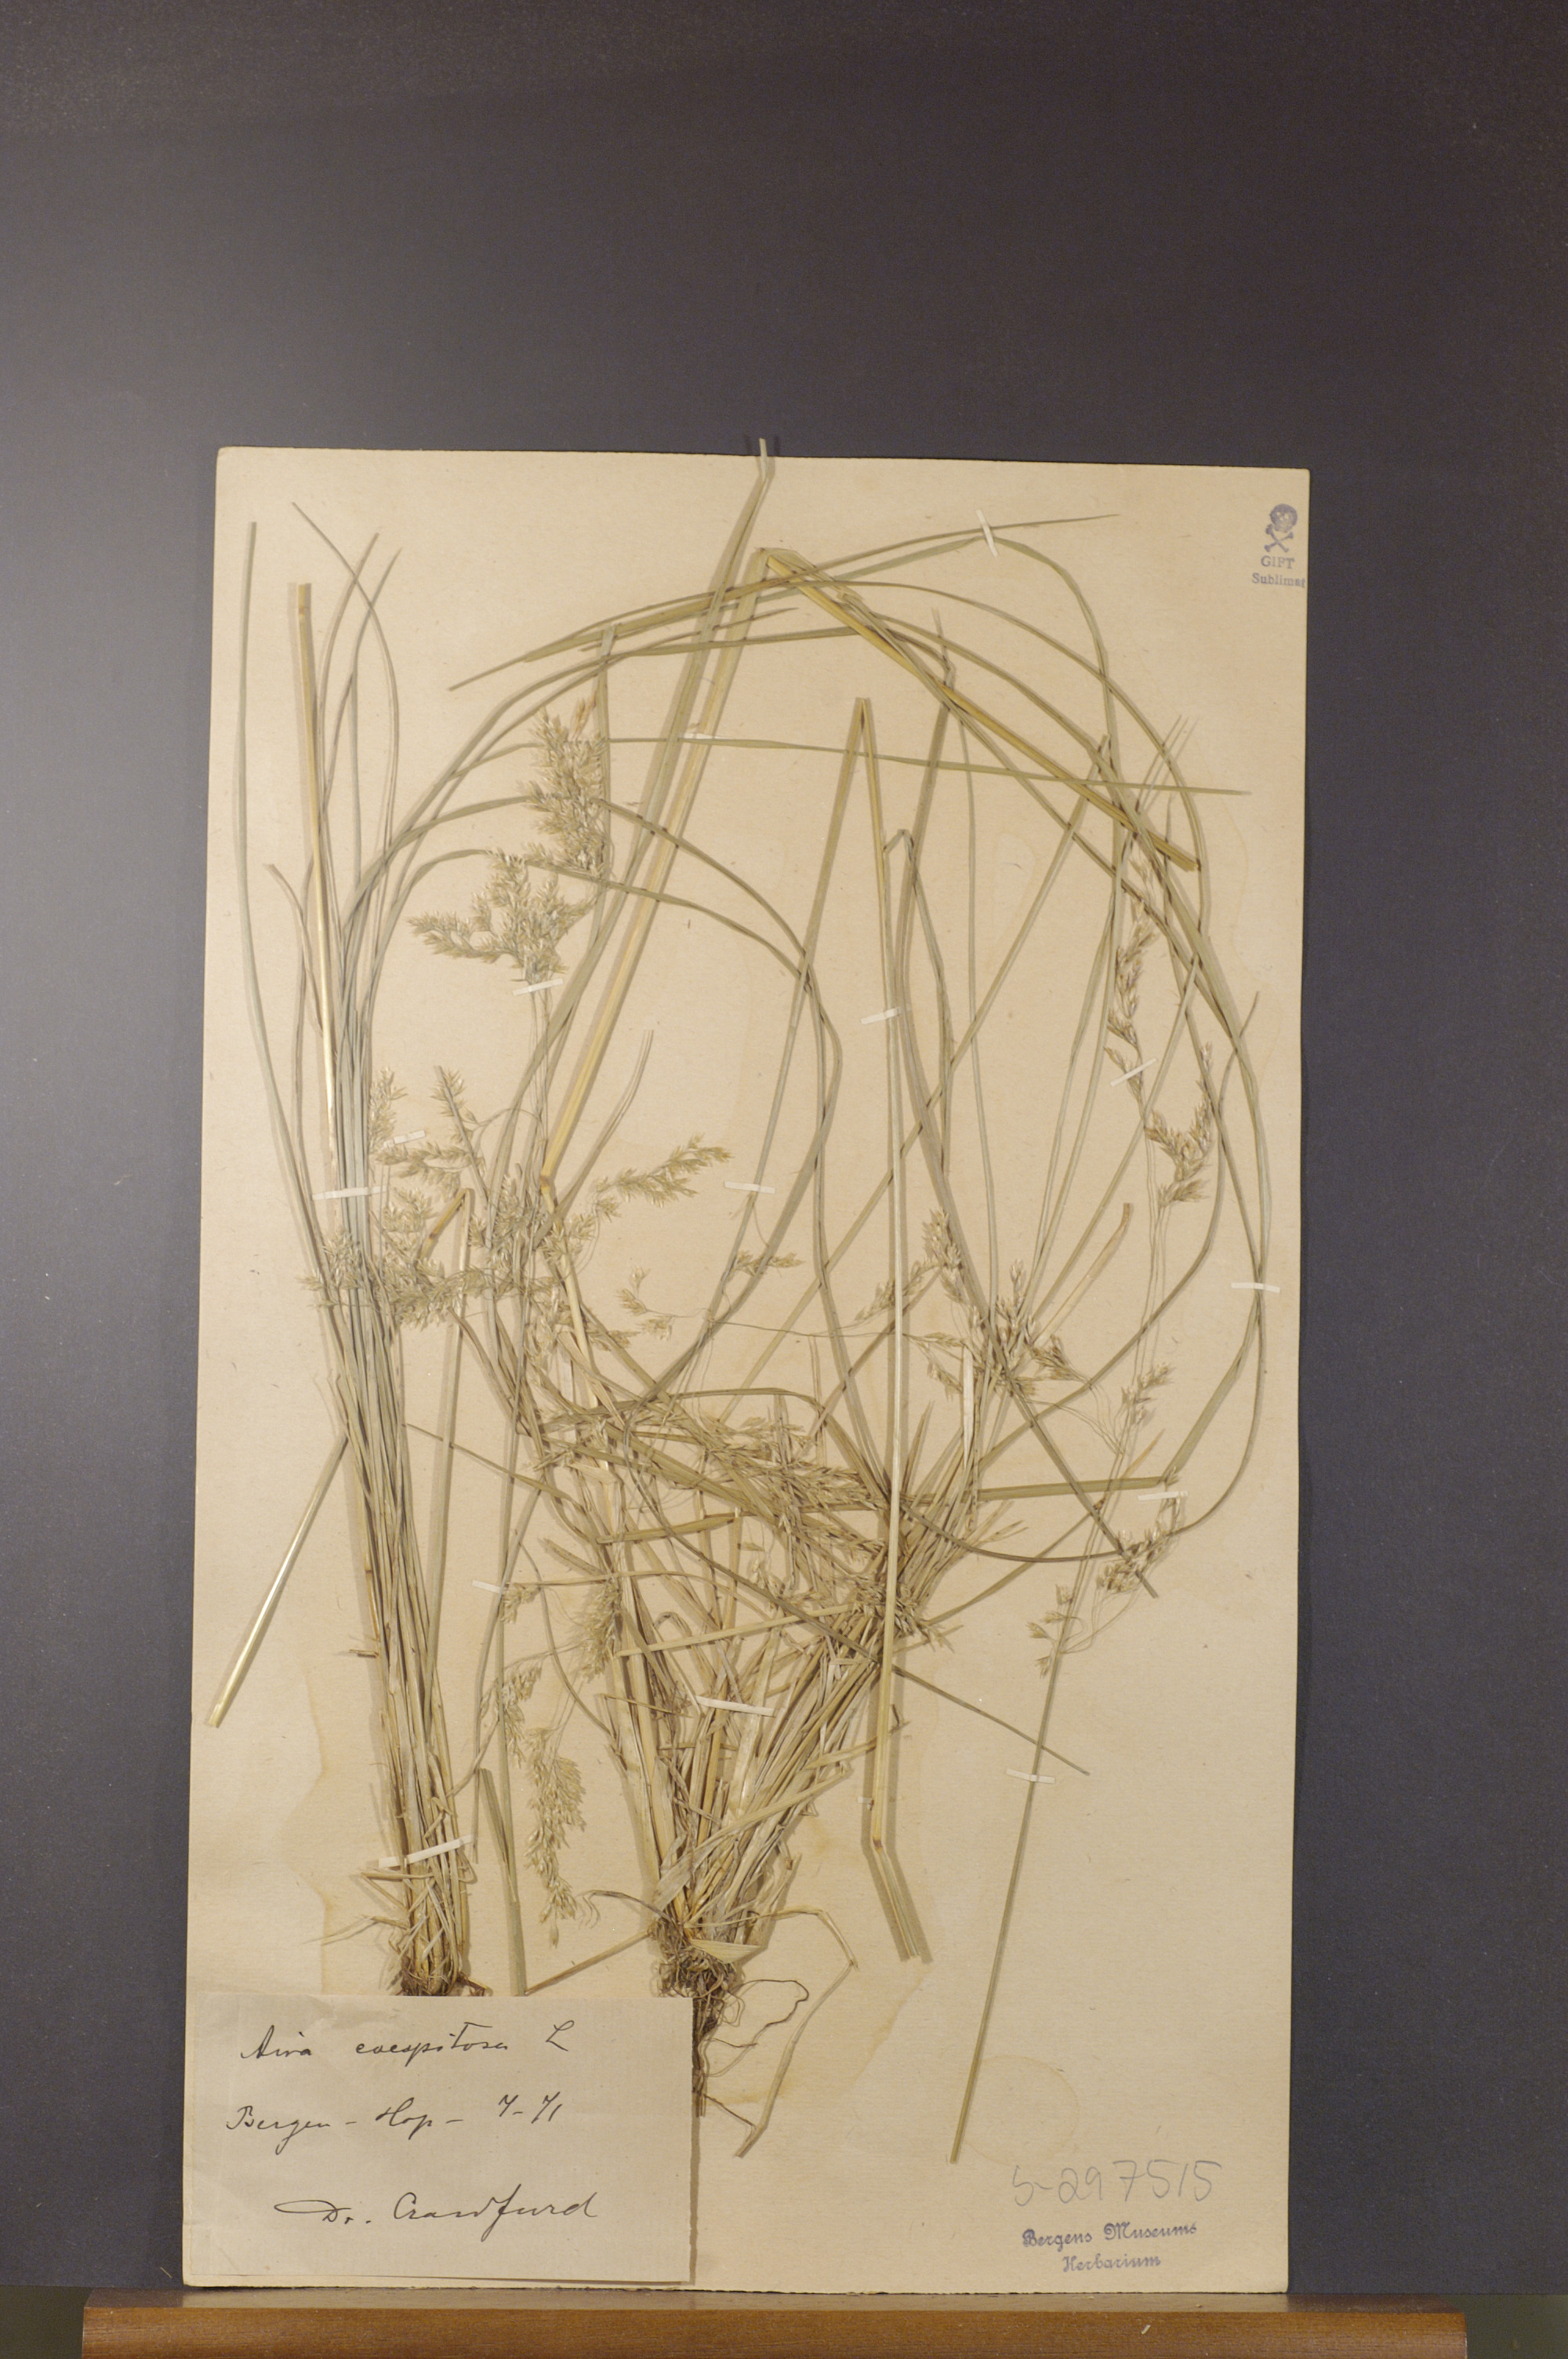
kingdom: Plantae
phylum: Tracheophyta
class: Liliopsida
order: Poales
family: Poaceae
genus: Deschampsia
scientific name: Deschampsia cespitosa
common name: Tufted hair-grass
